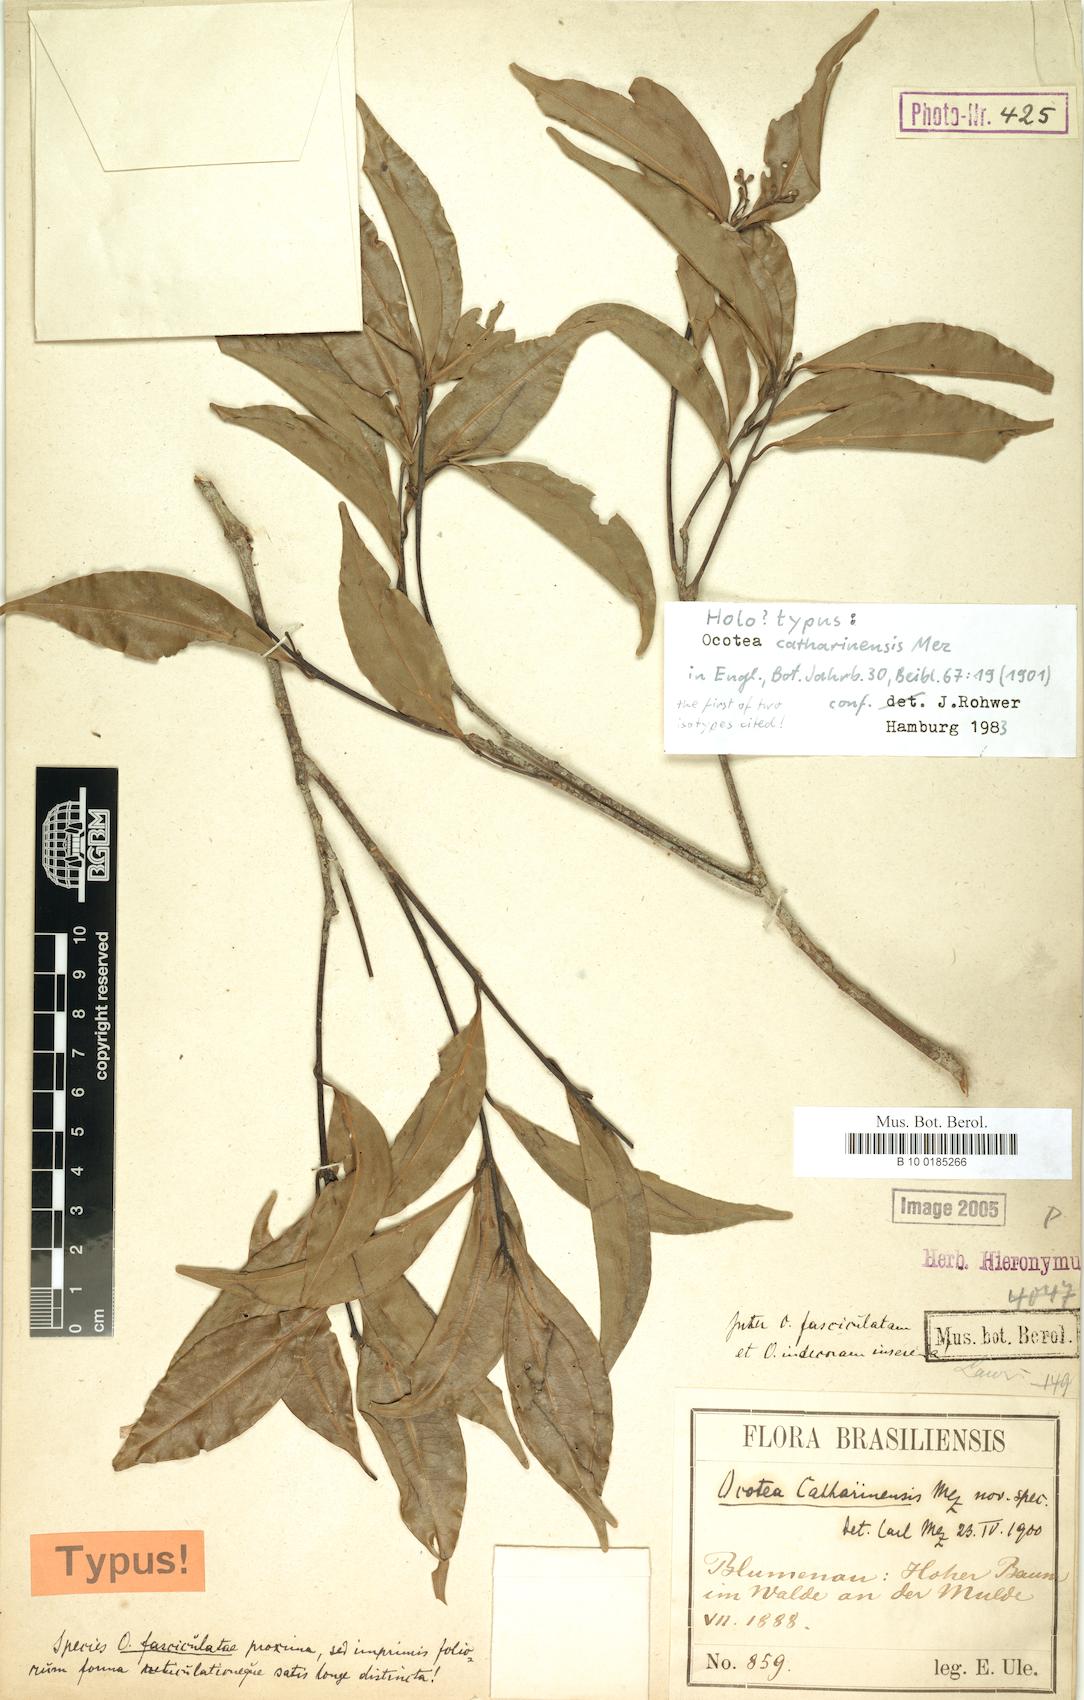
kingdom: Plantae
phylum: Tracheophyta
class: Magnoliopsida
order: Laurales
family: Lauraceae
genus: Ocotea
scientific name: Ocotea catharinensis
